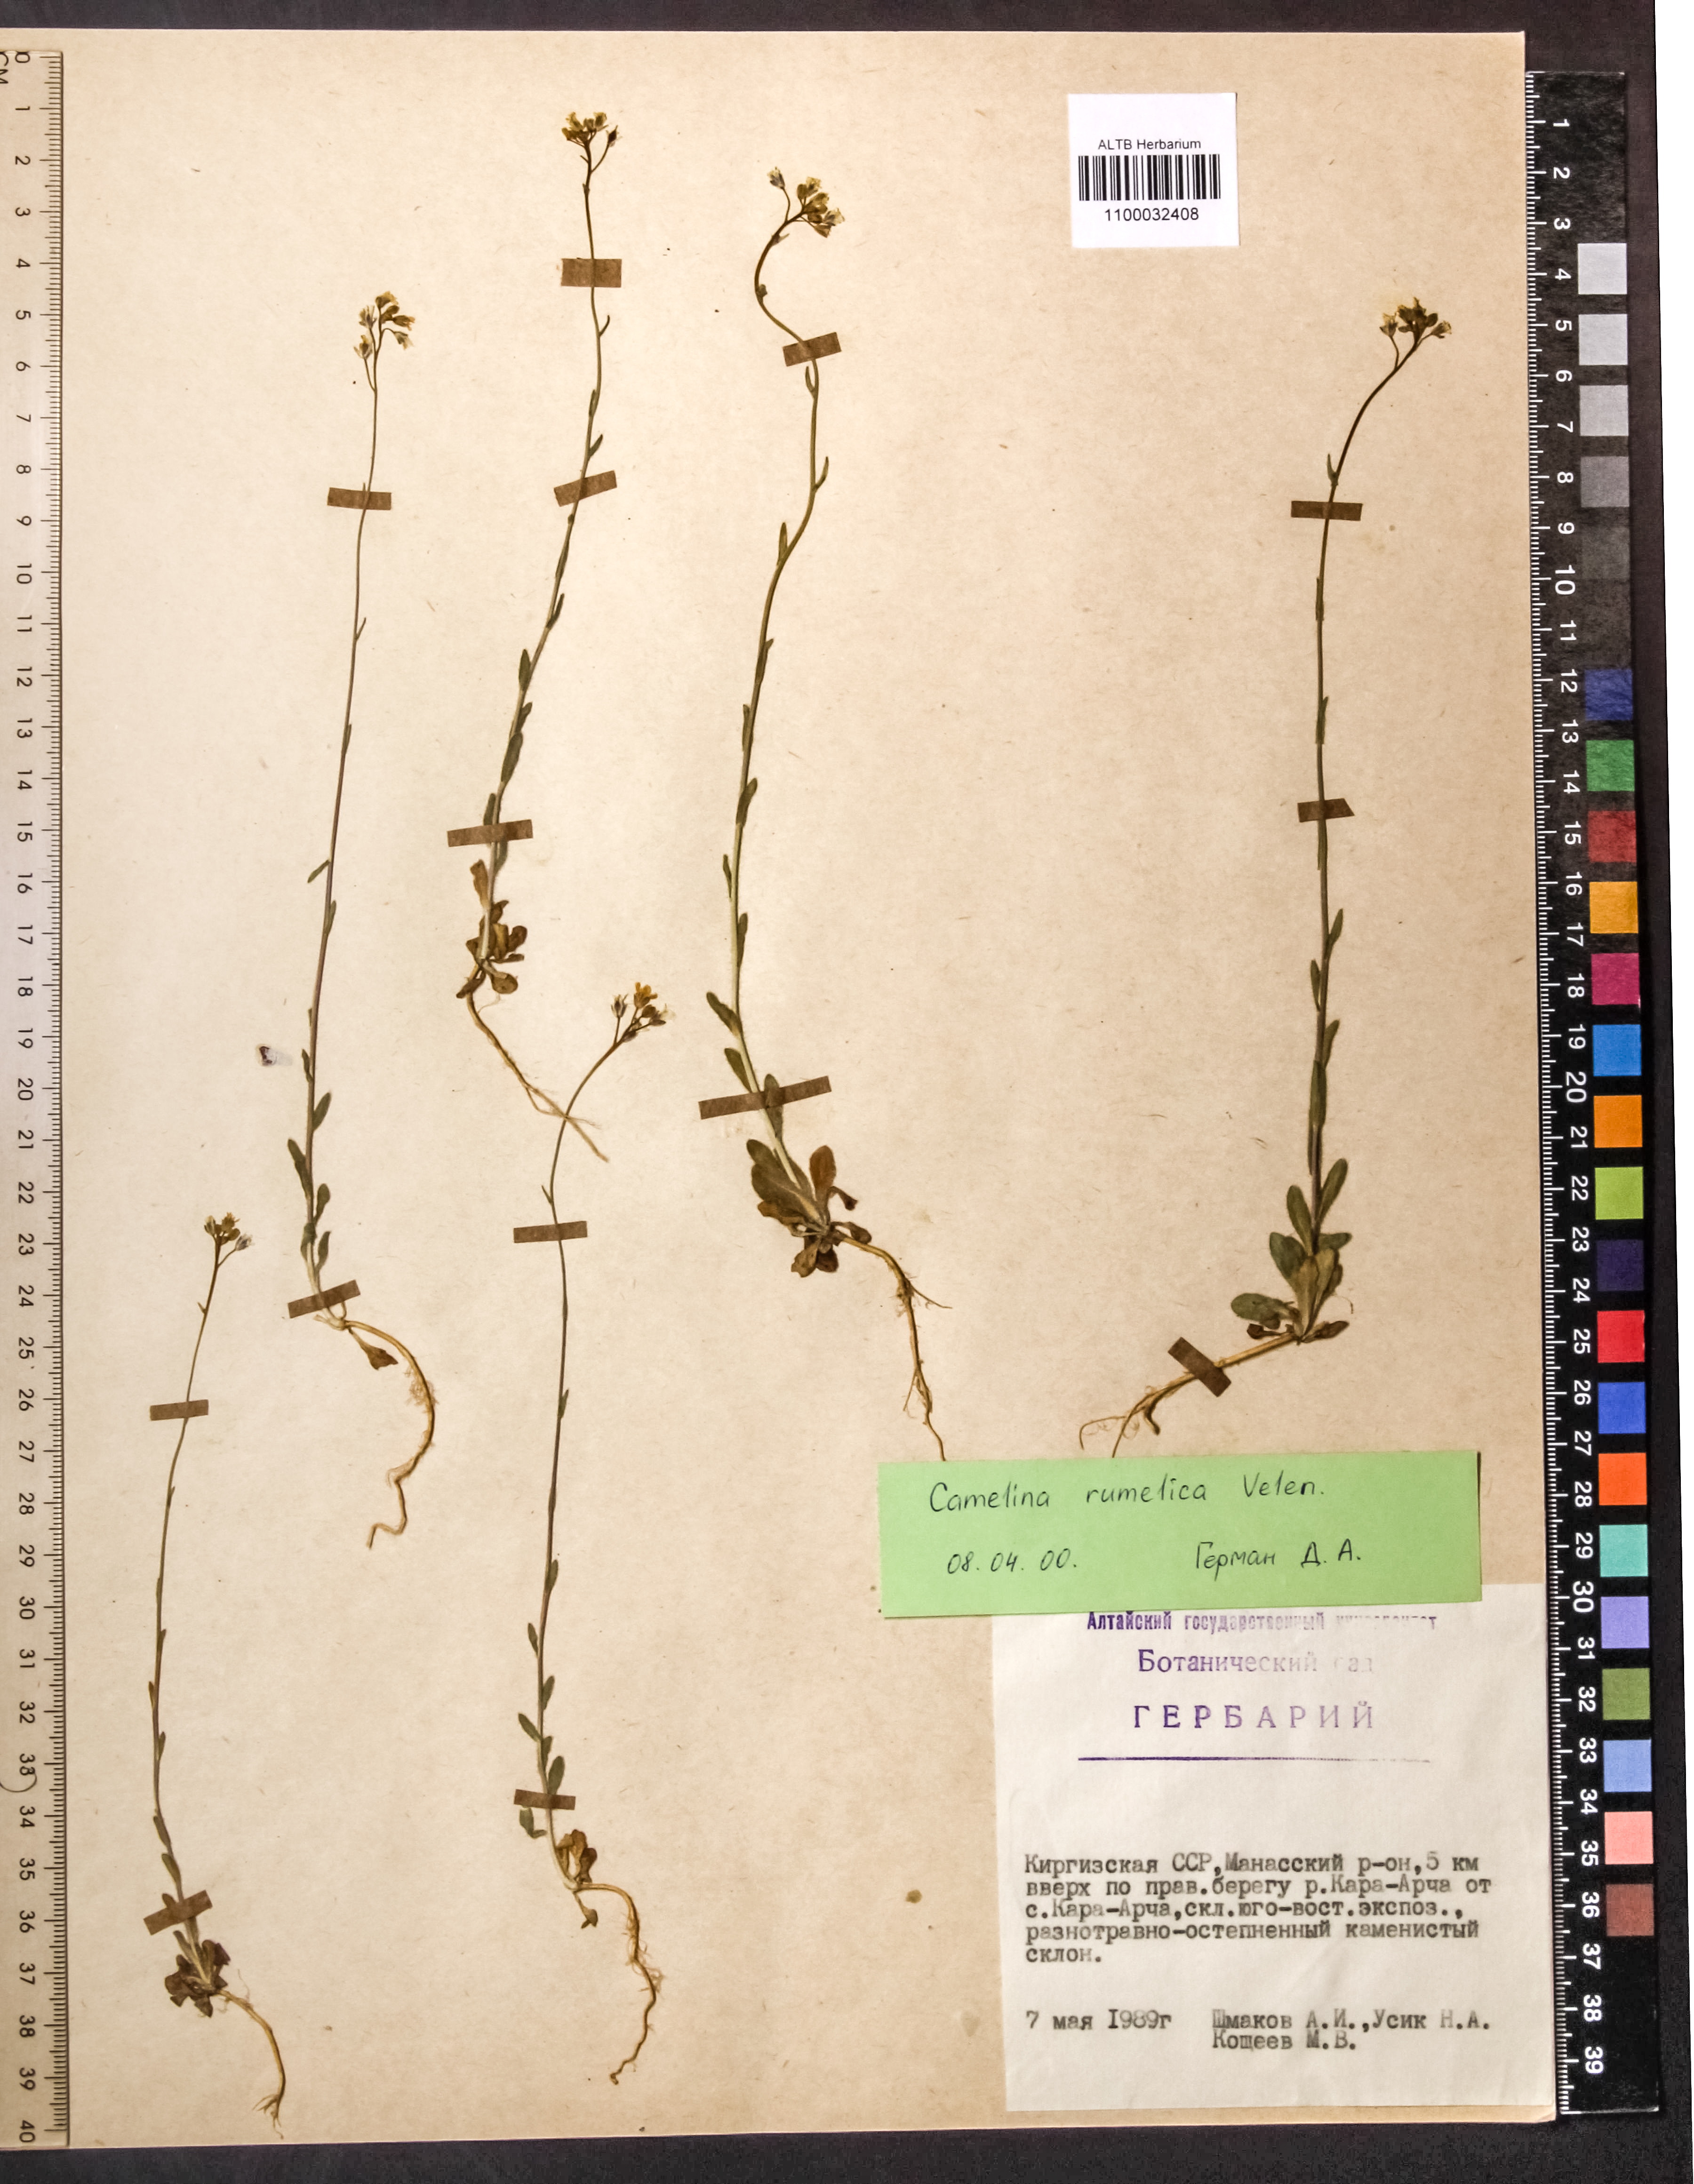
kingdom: Plantae
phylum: Tracheophyta
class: Magnoliopsida
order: Brassicales
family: Brassicaceae
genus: Camelina
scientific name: Camelina rumelica
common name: Graceful false flax
